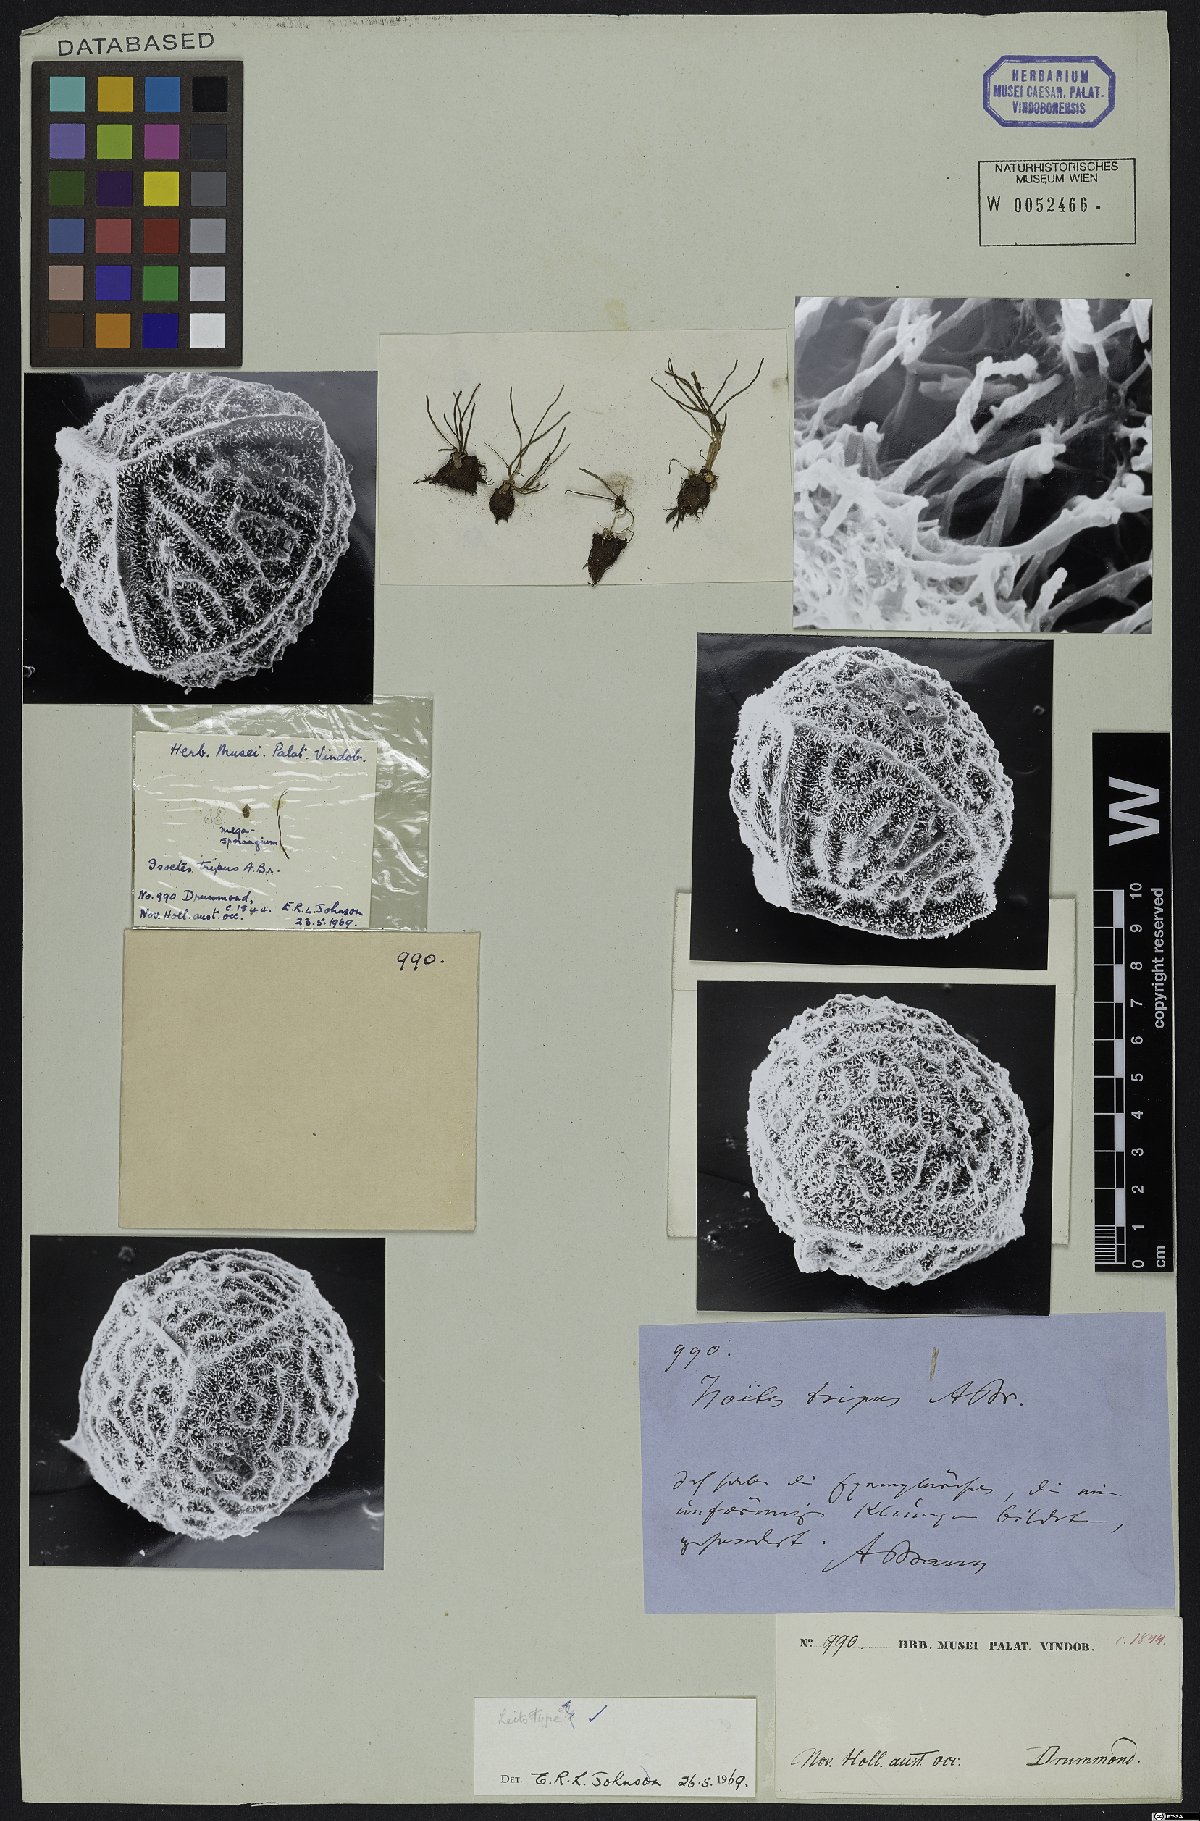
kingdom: Plantae
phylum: Tracheophyta
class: Lycopodiopsida
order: Isoetales
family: Isoetaceae
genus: Isoetes
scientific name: Isoetes tripus
